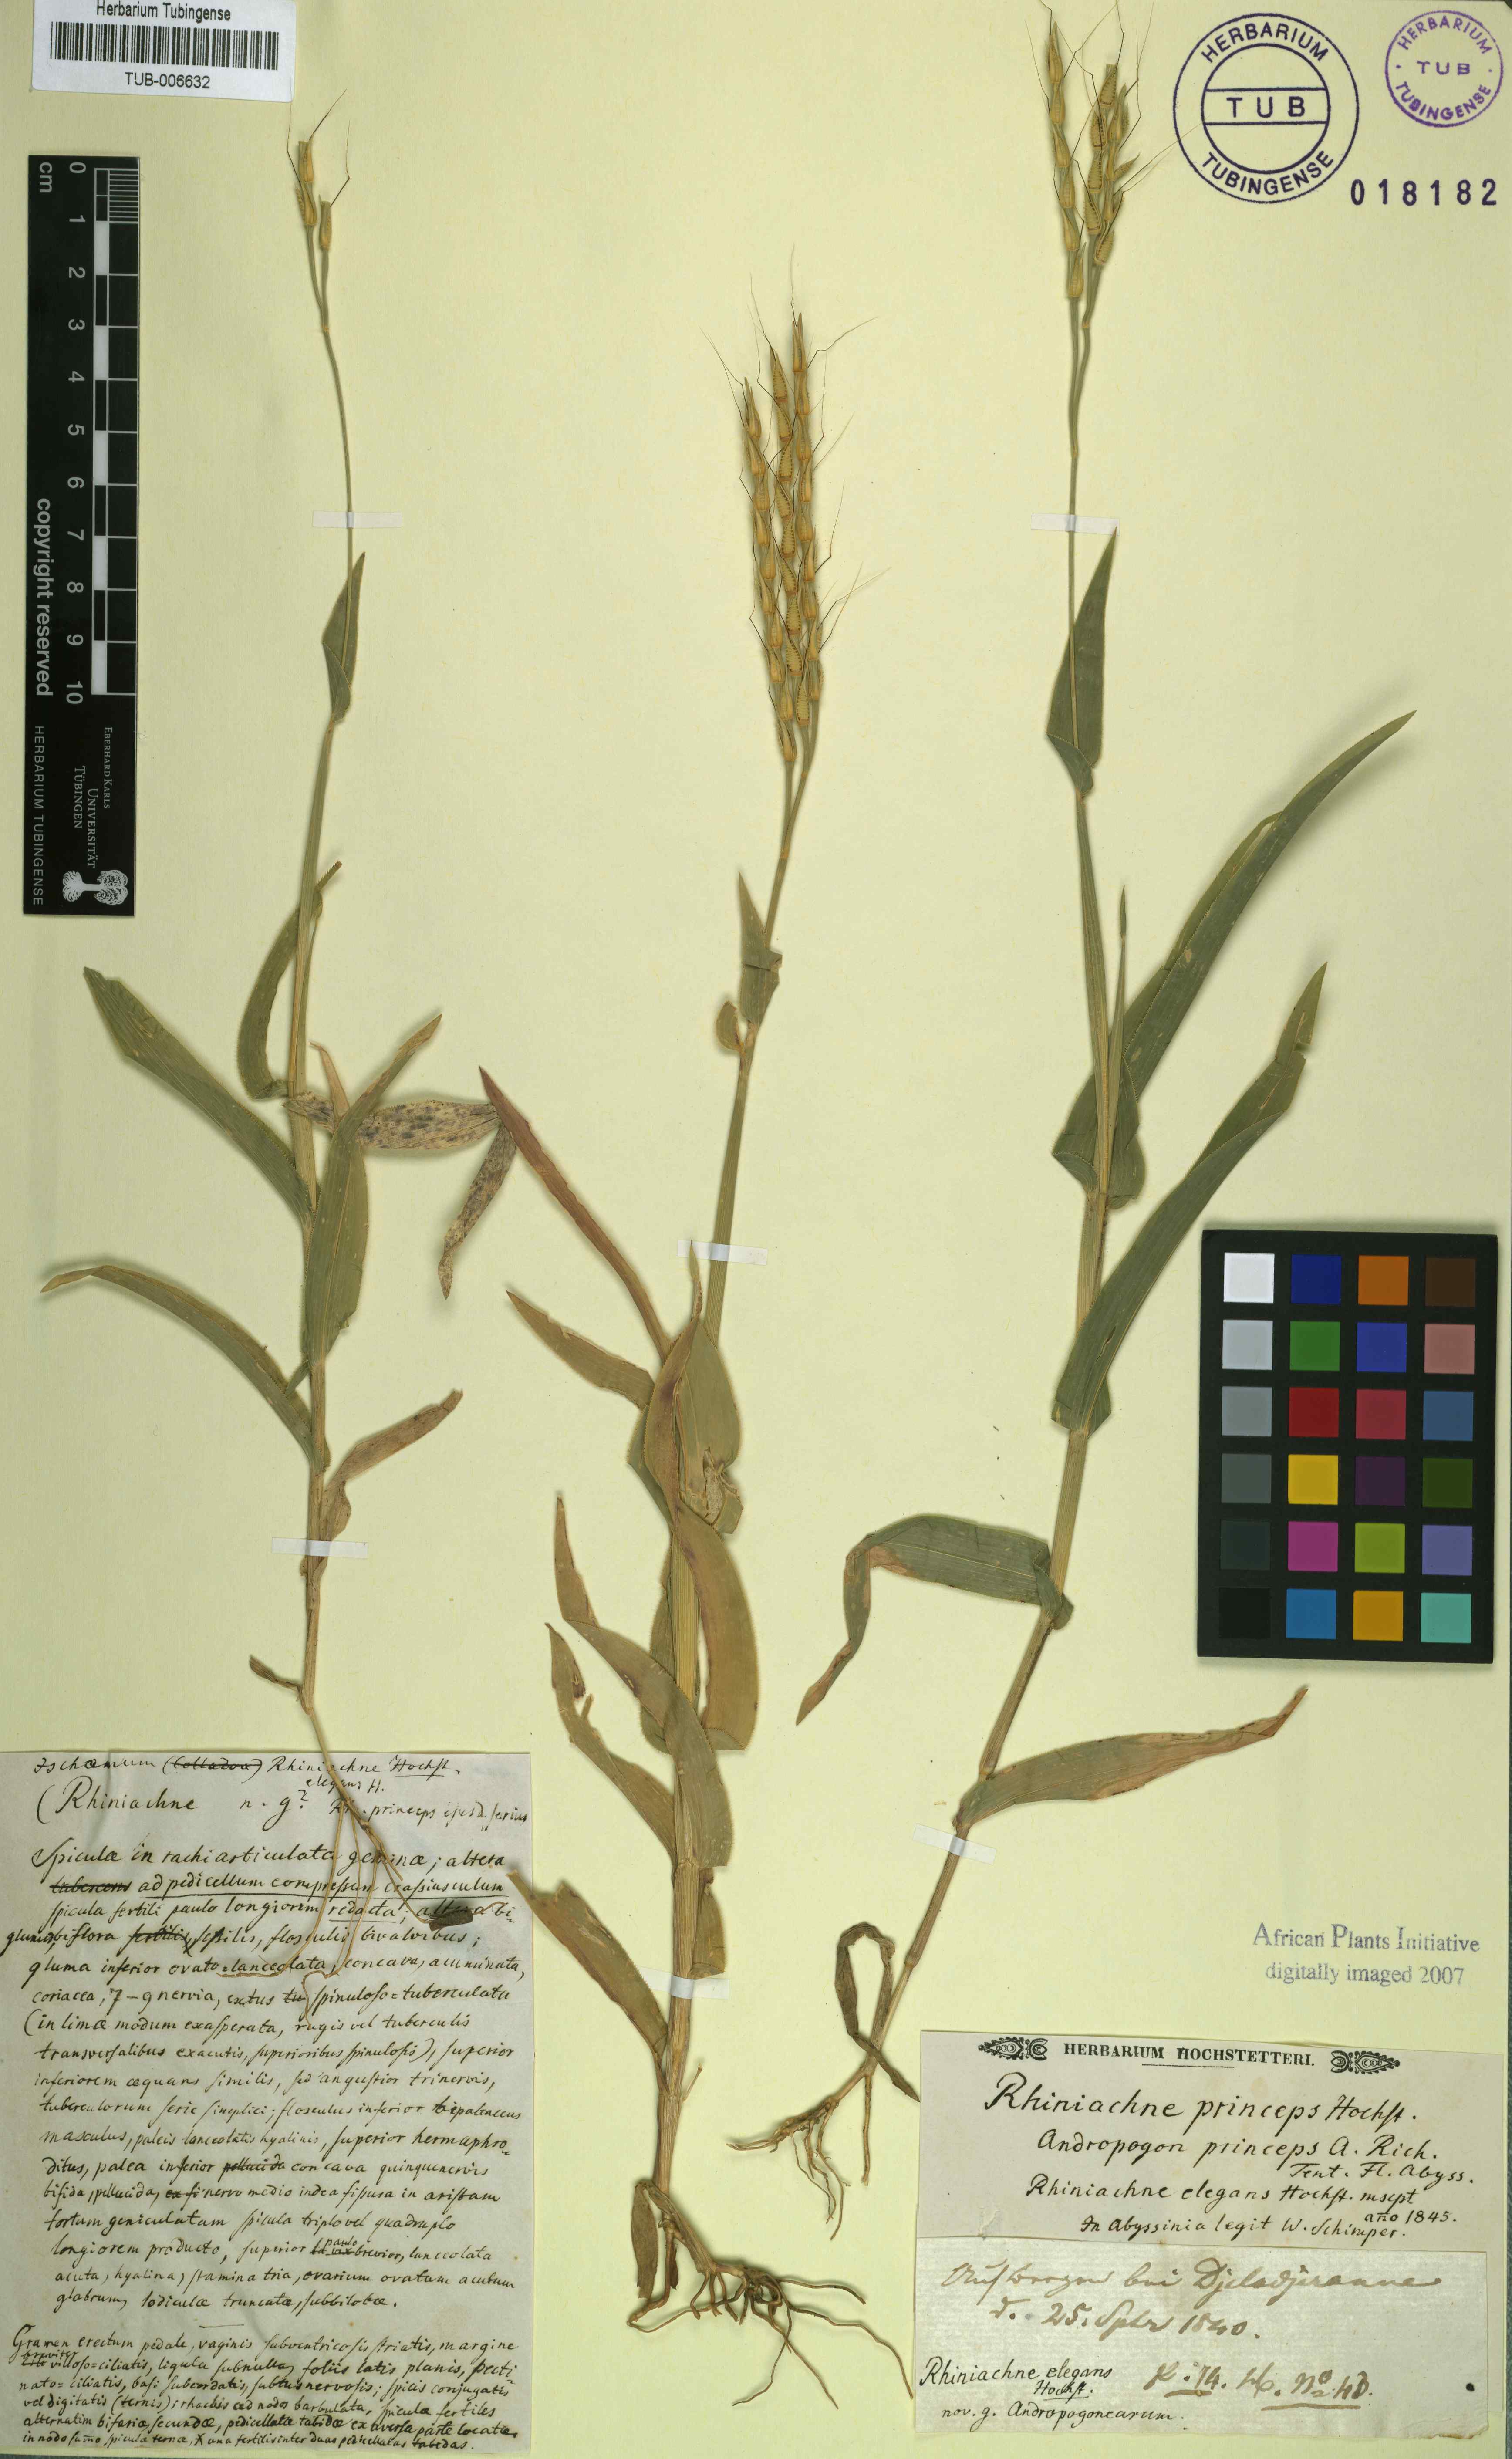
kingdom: Plantae
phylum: Tracheophyta
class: Liliopsida
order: Poales
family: Poaceae
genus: Thelepogon
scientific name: Thelepogon elegans
